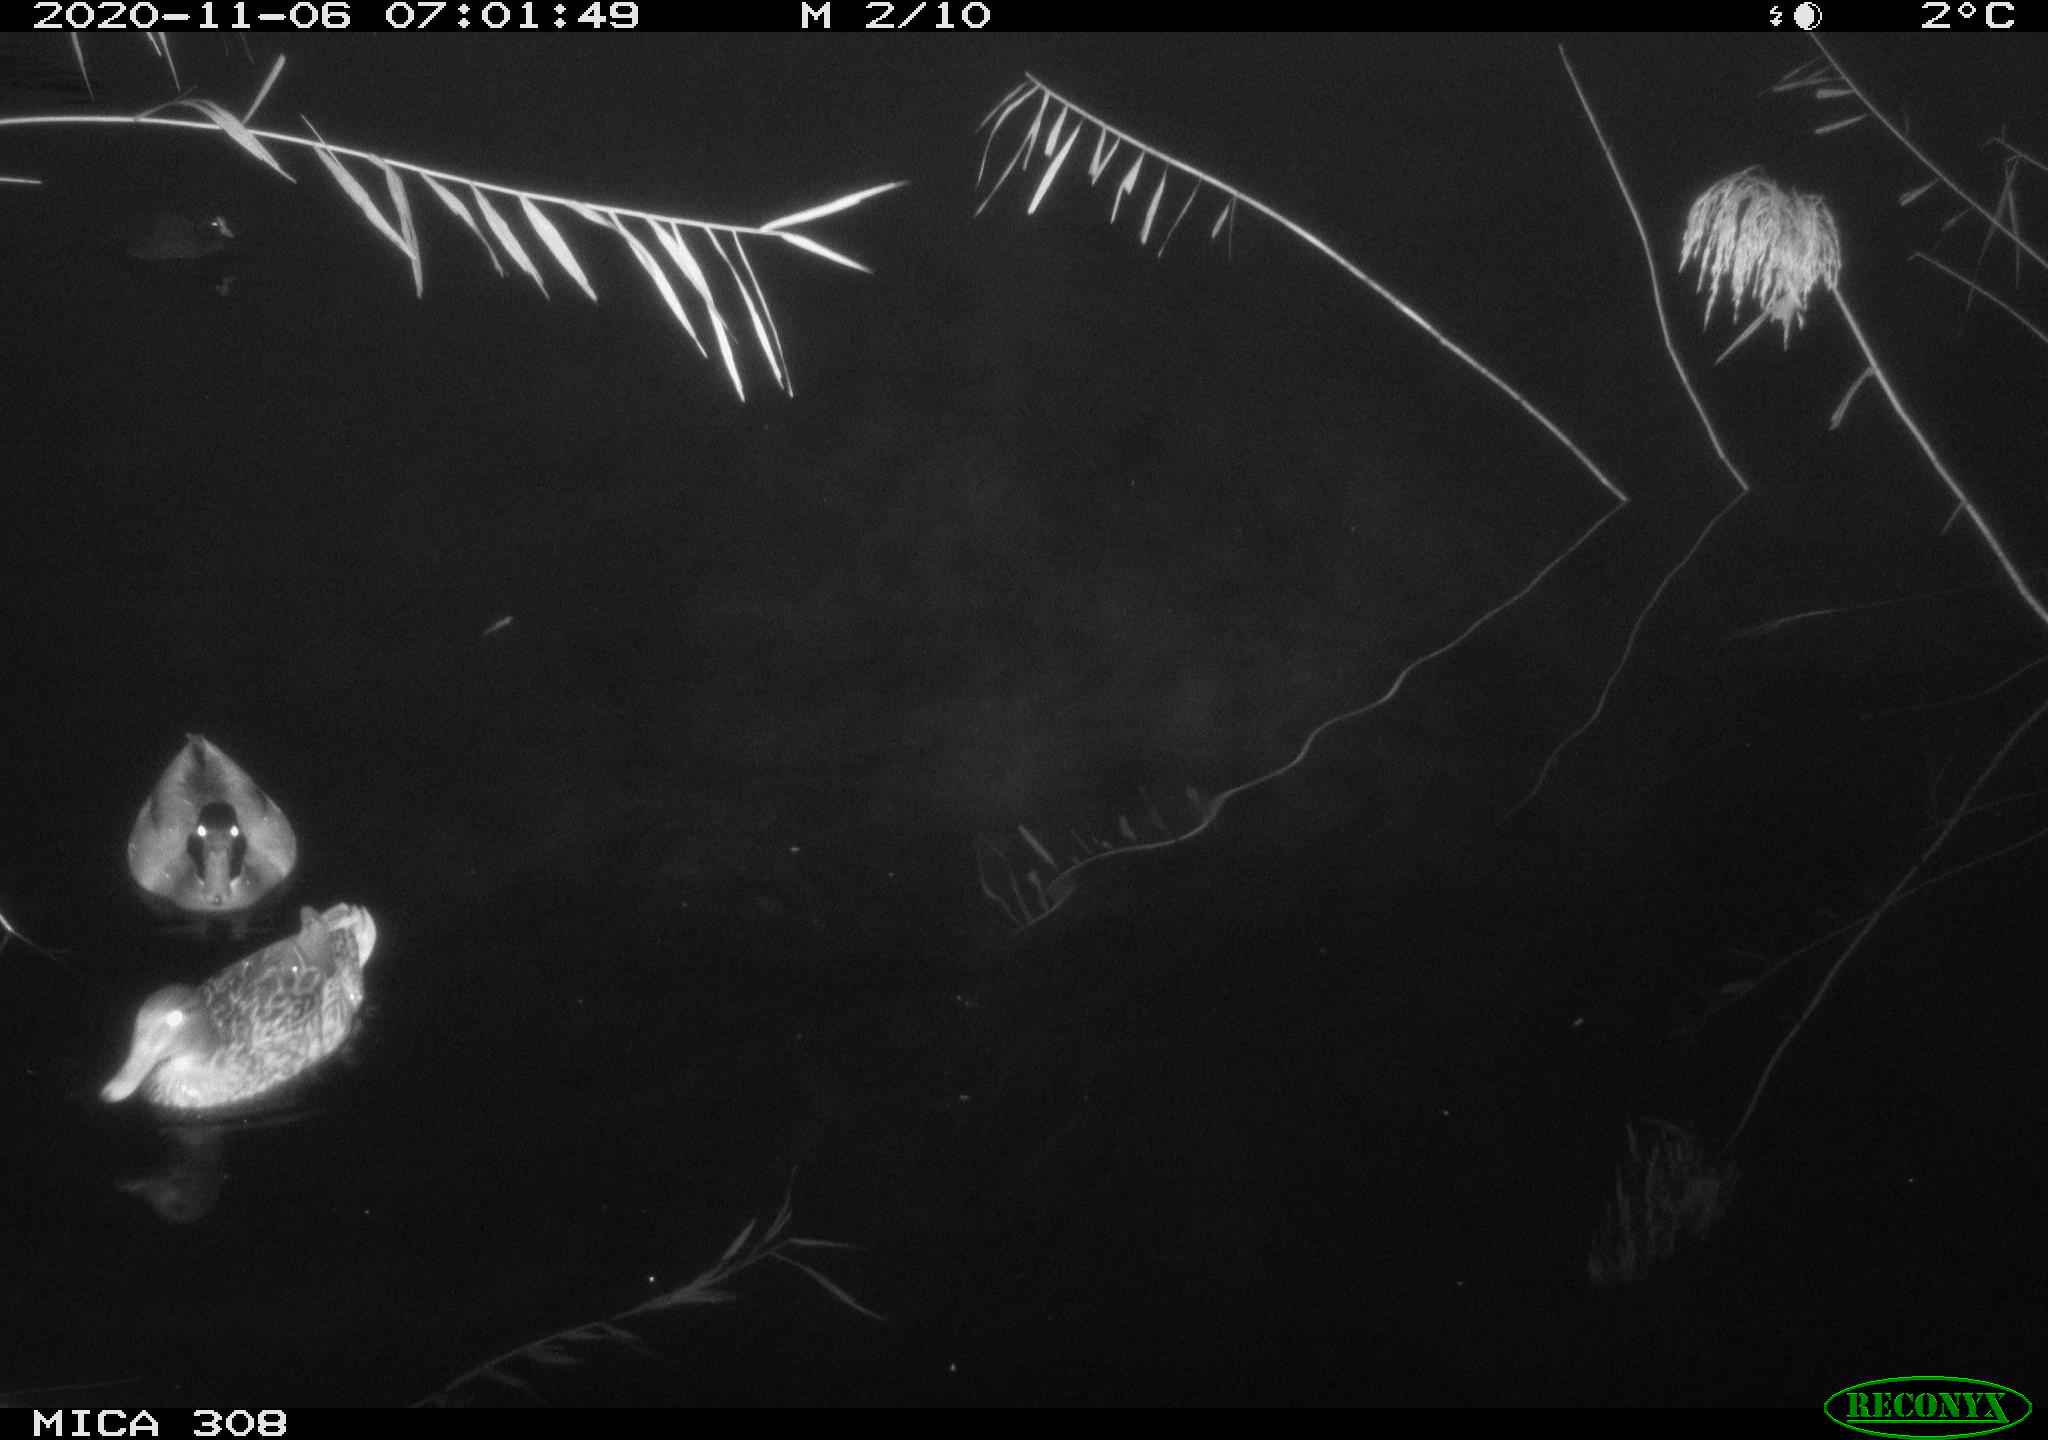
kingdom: Animalia
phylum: Chordata
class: Aves
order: Anseriformes
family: Anatidae
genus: Anas
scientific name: Anas platyrhynchos
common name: Mallard
